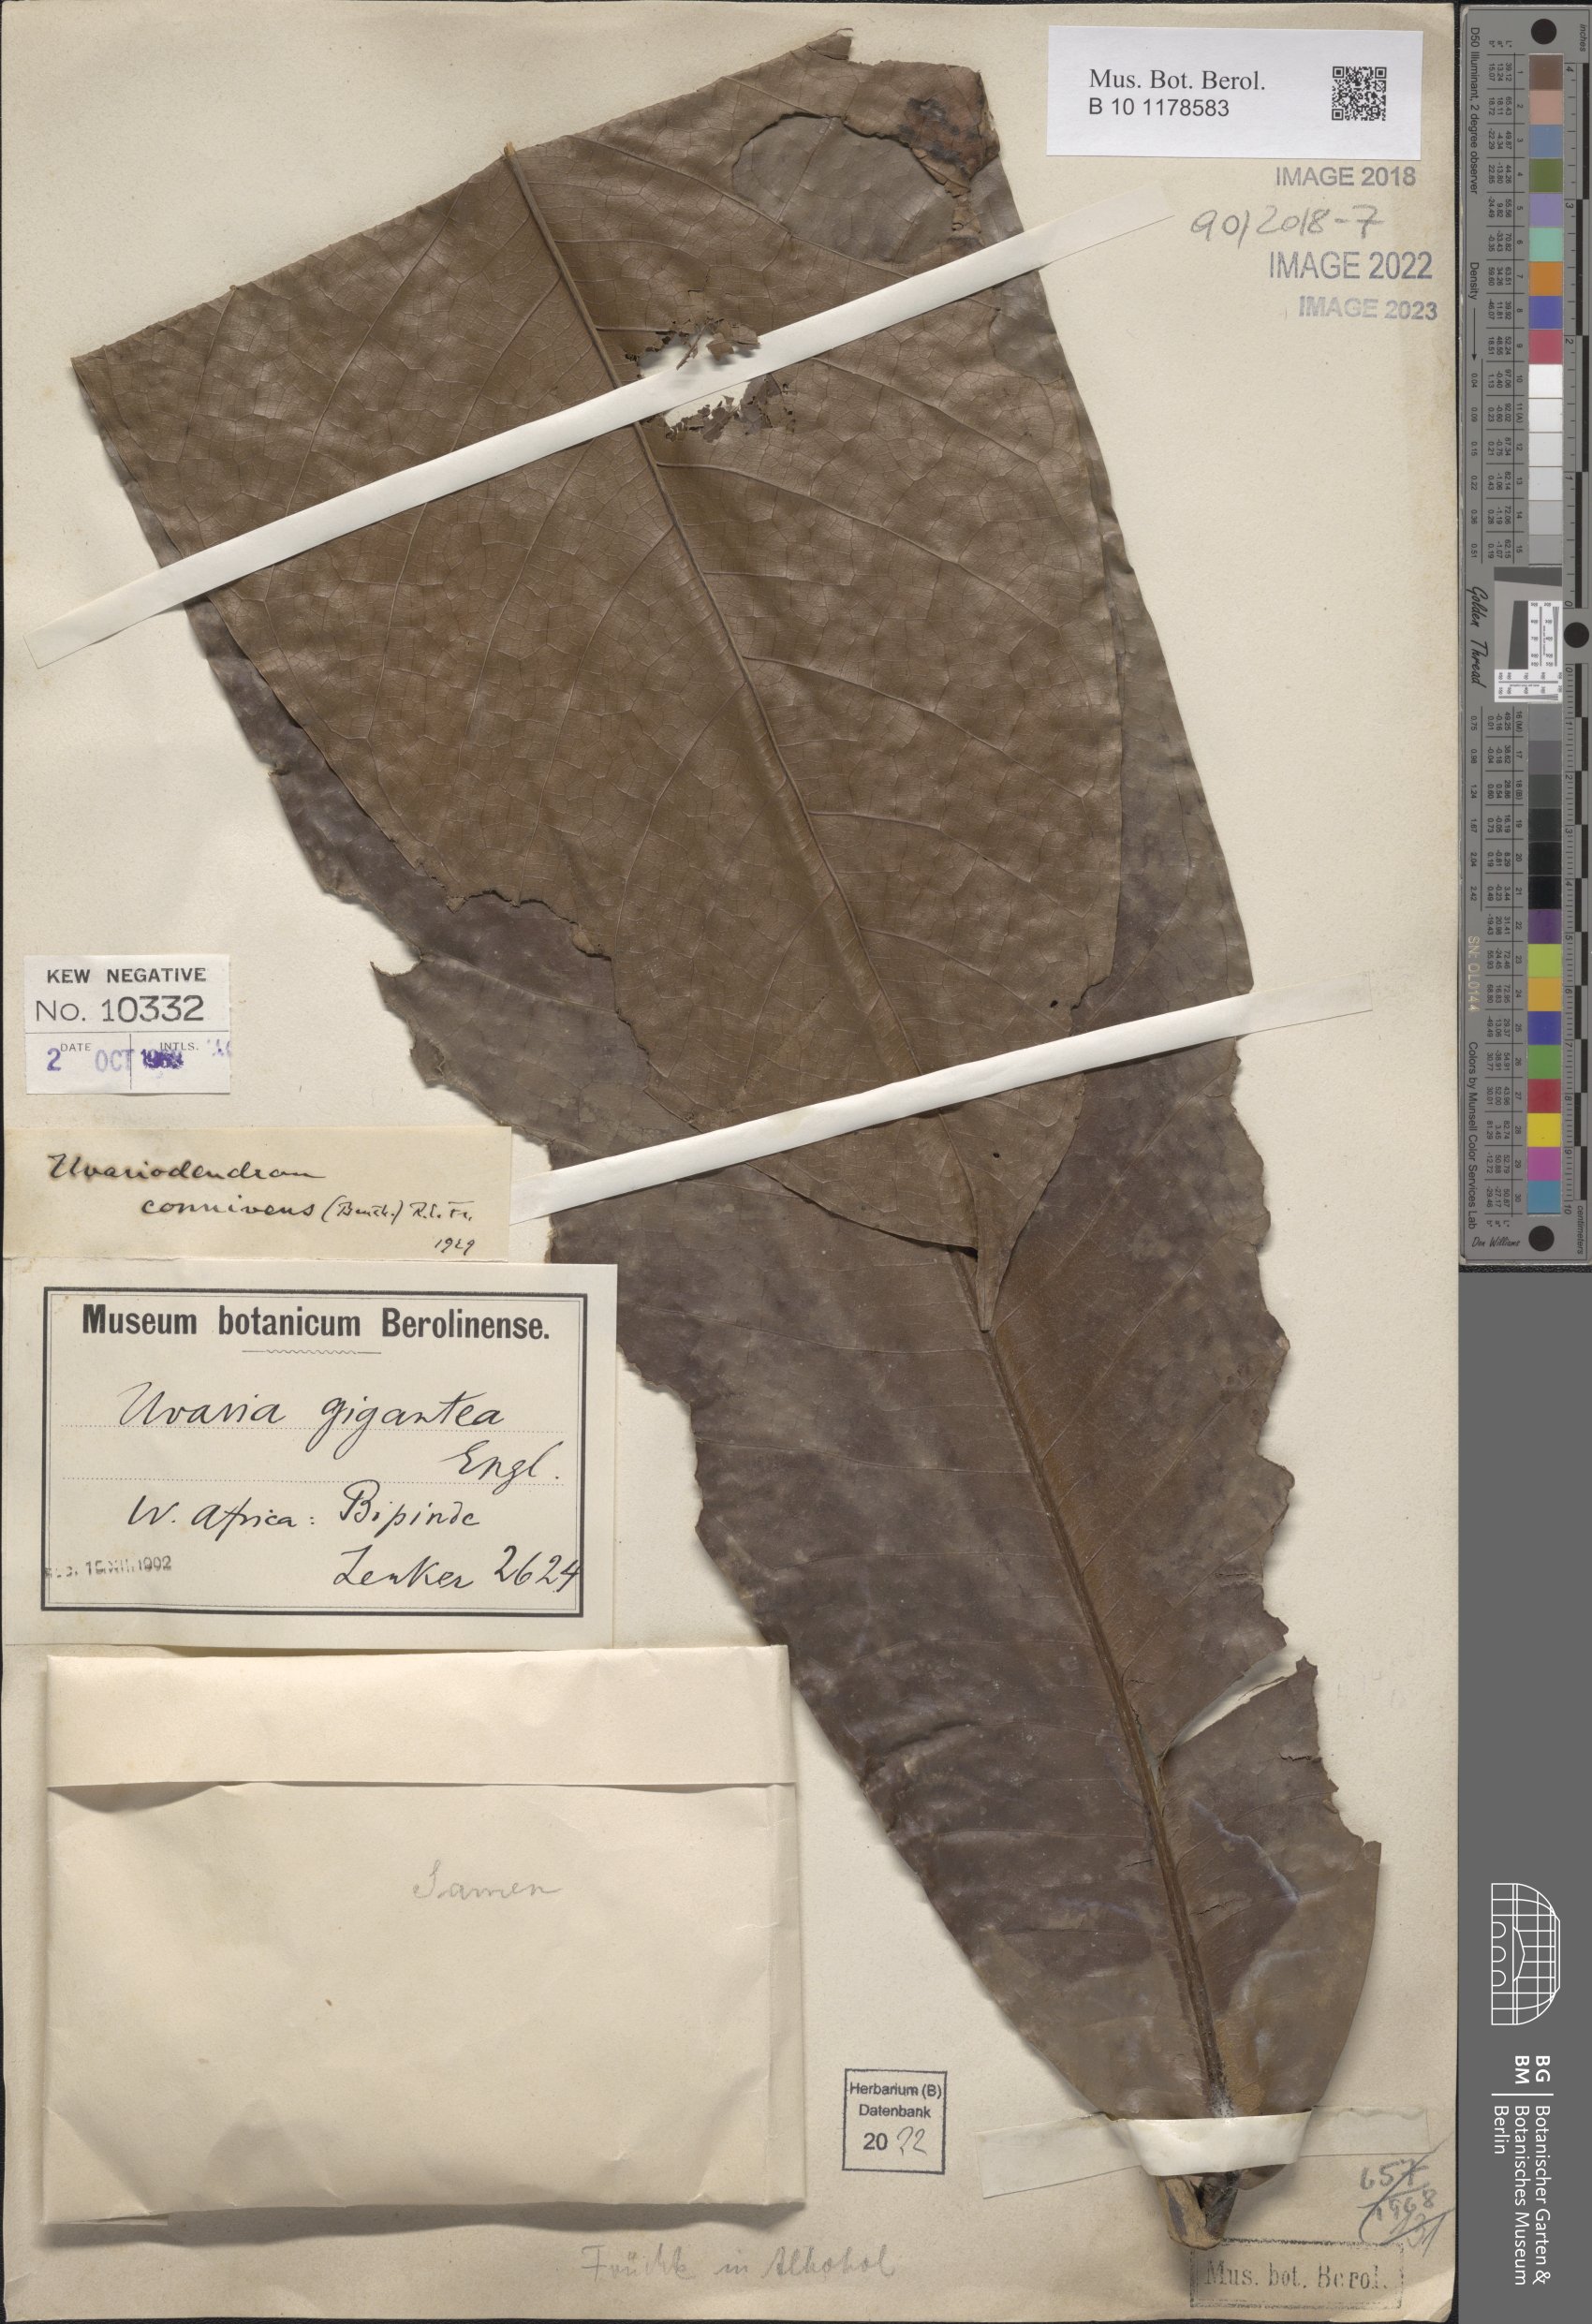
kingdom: Plantae
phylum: Tracheophyta
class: Magnoliopsida
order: Magnoliales
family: Annonaceae
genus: Uvariodendron
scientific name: Uvariodendron connivens
